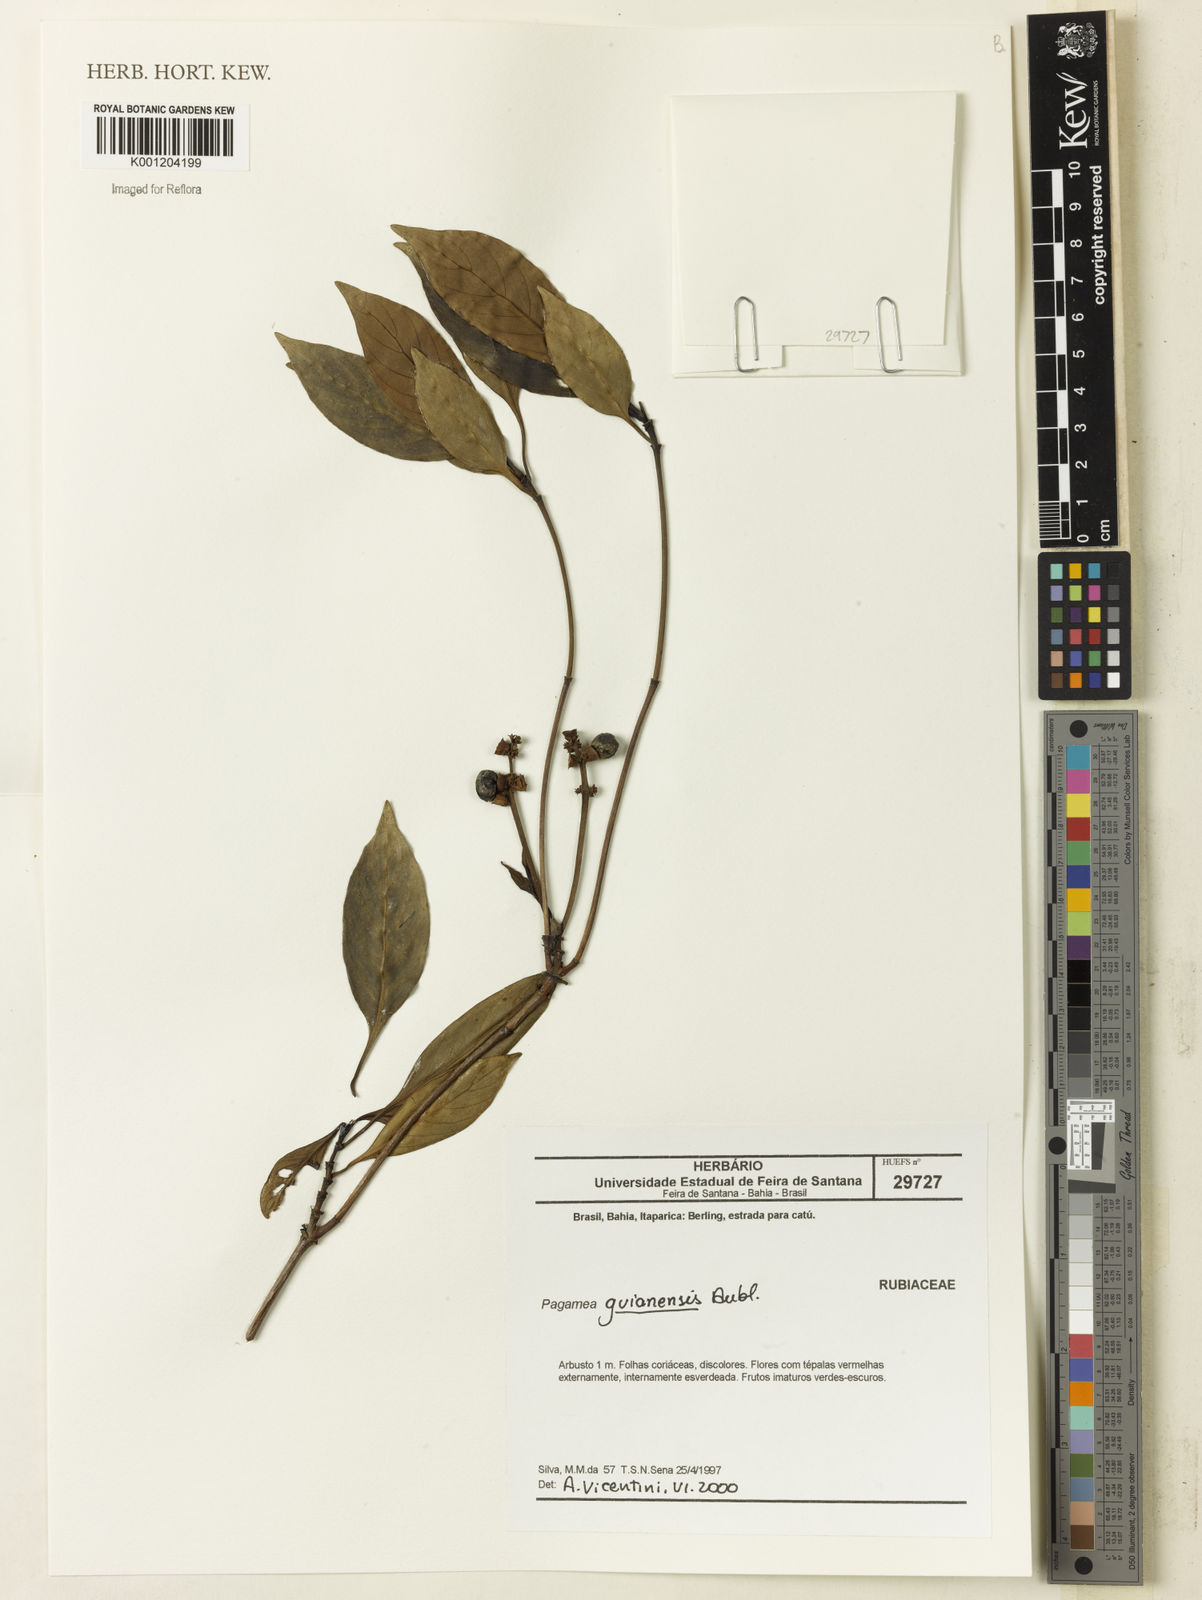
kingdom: Plantae
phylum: Tracheophyta
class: Magnoliopsida
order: Gentianales
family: Rubiaceae
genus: Pagamea
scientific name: Pagamea guianensis
